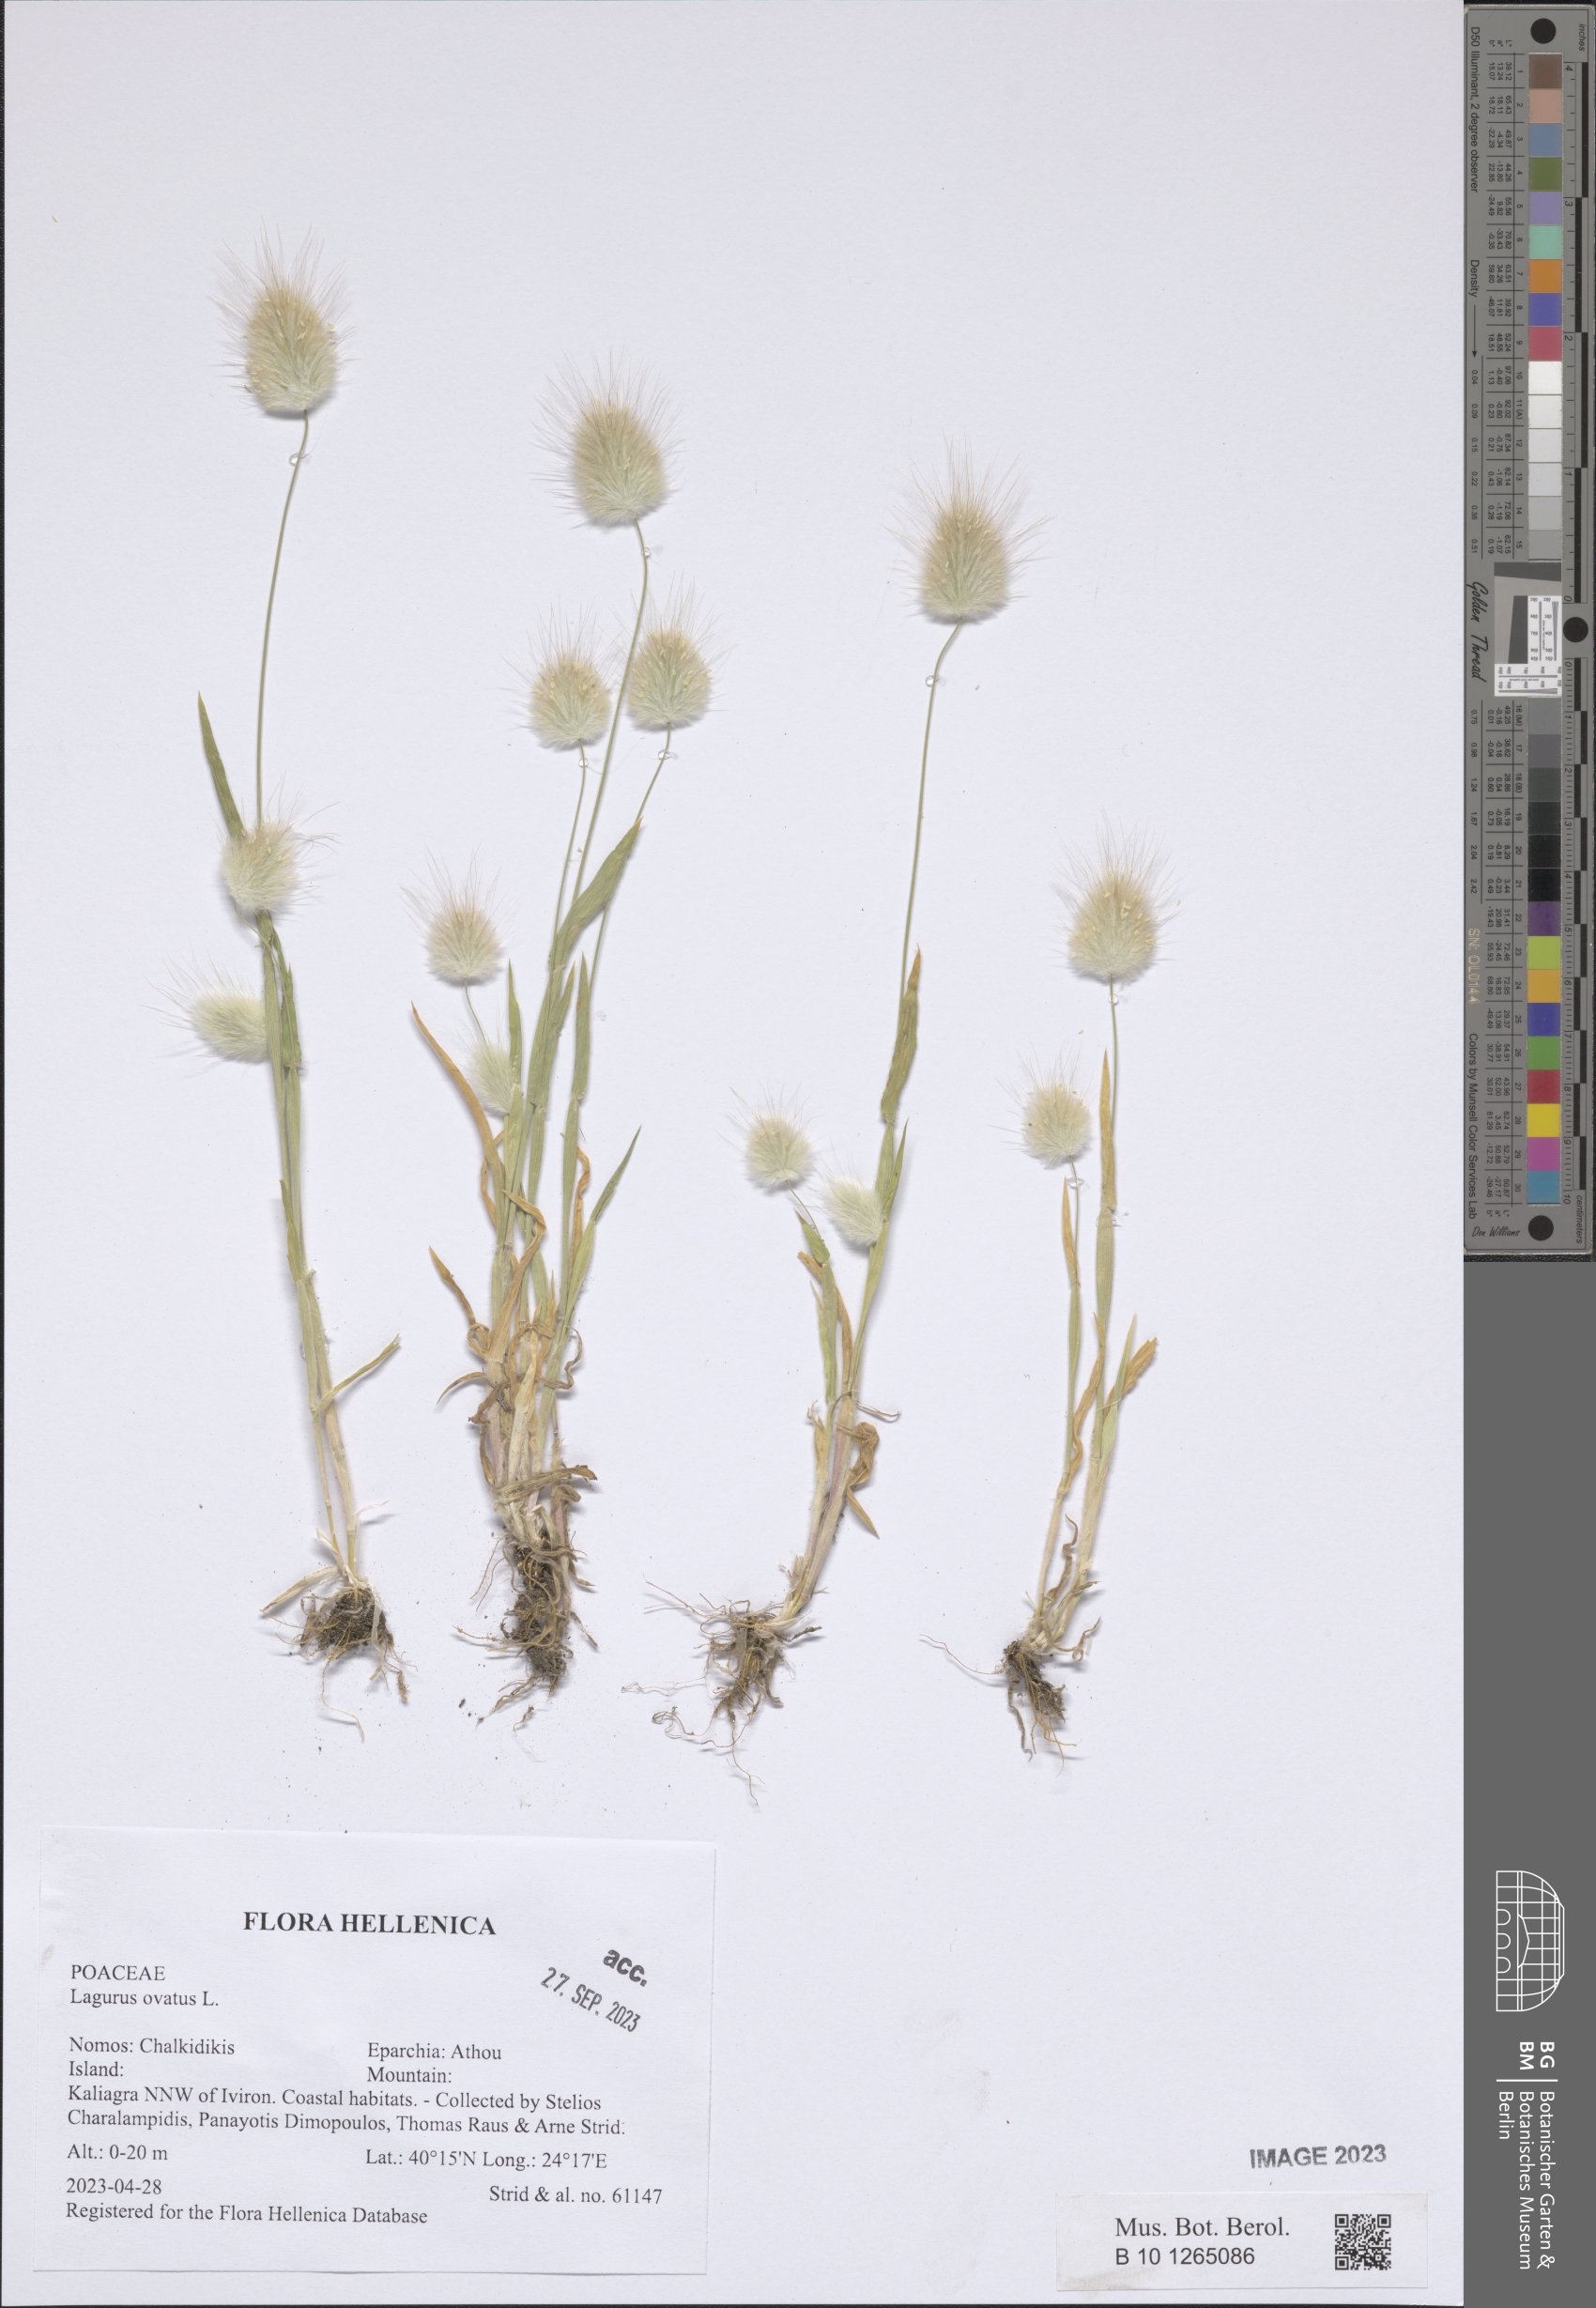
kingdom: Plantae
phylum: Tracheophyta
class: Liliopsida
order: Poales
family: Poaceae
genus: Lagurus
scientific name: Lagurus ovatus
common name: Hare's-tail
